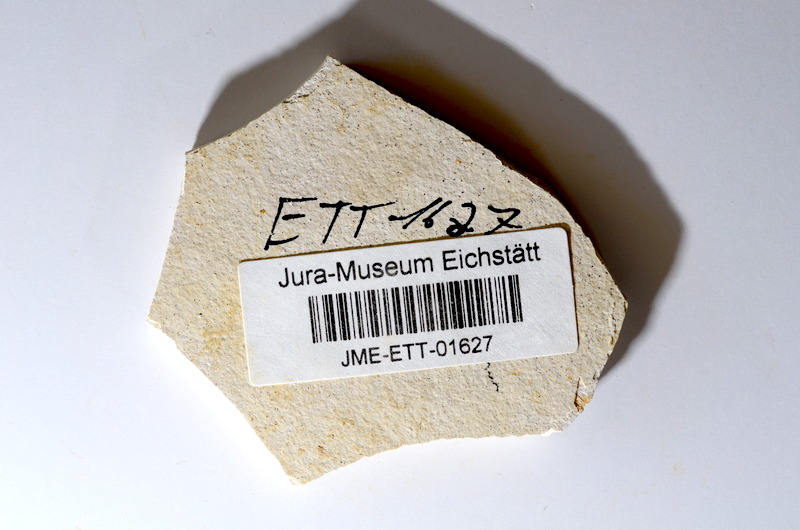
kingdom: Animalia
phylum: Chordata
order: Salmoniformes
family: Orthogonikleithridae
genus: Orthogonikleithrus
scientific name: Orthogonikleithrus hoelli
